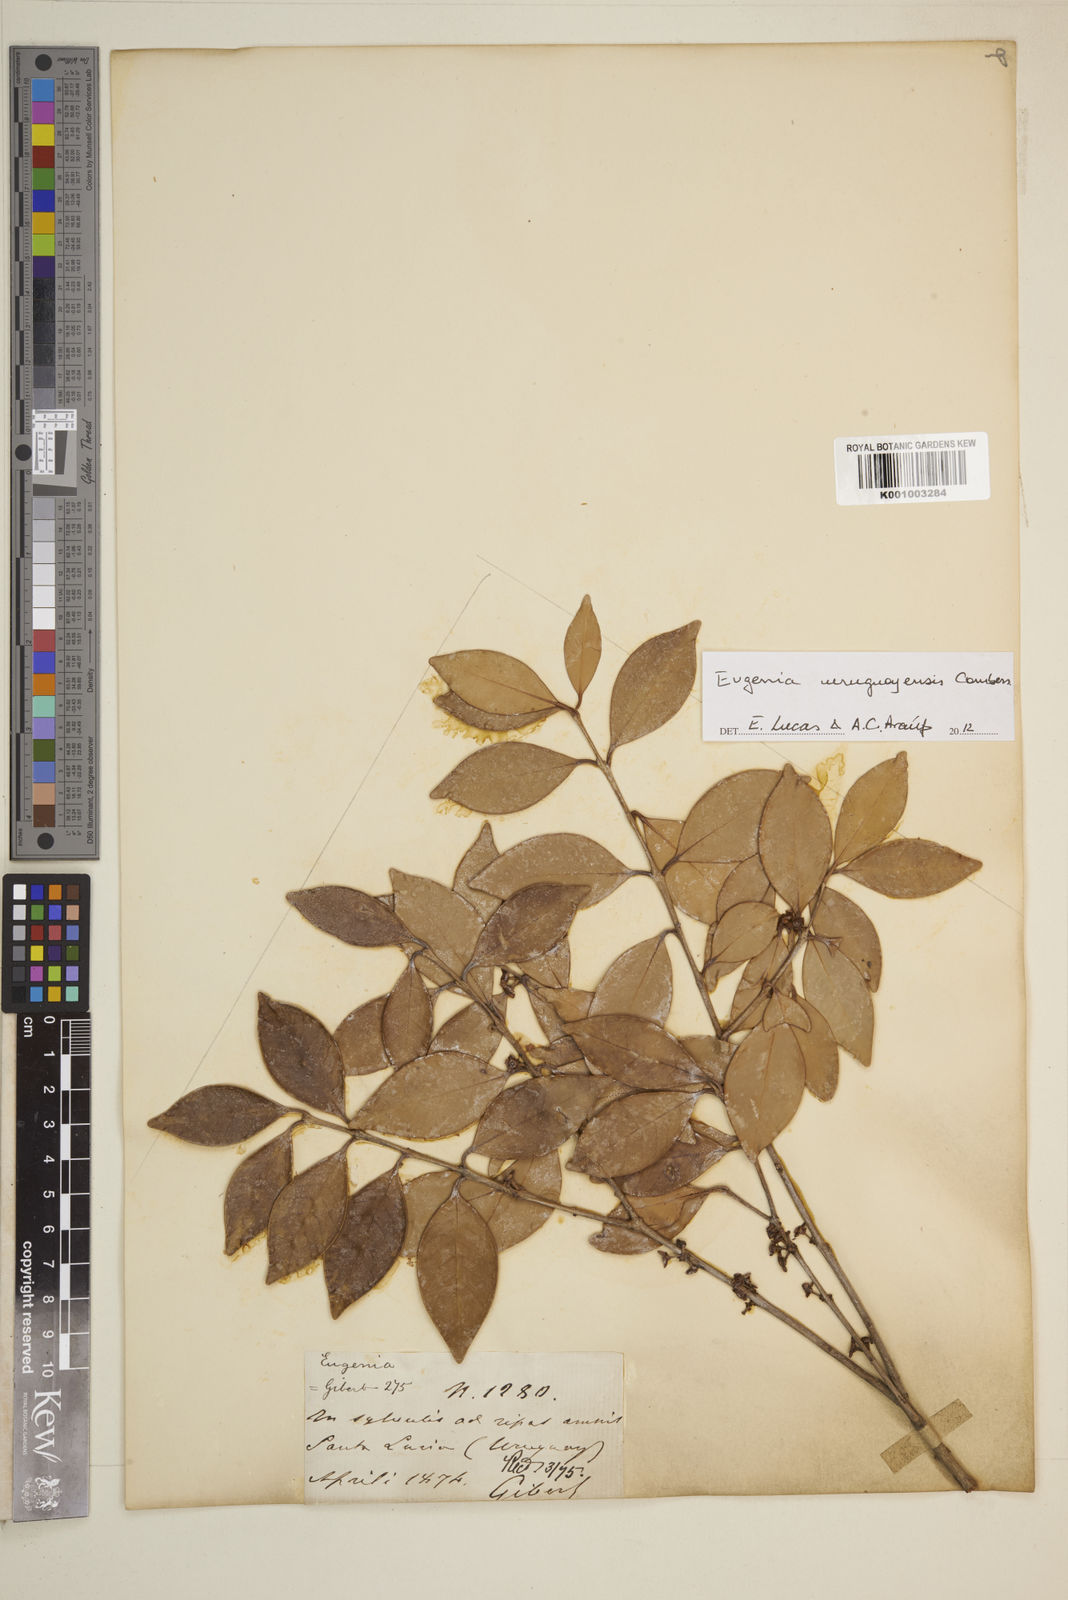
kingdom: Plantae
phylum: Tracheophyta
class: Magnoliopsida
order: Myrtales
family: Myrtaceae
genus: Eugenia
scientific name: Eugenia
